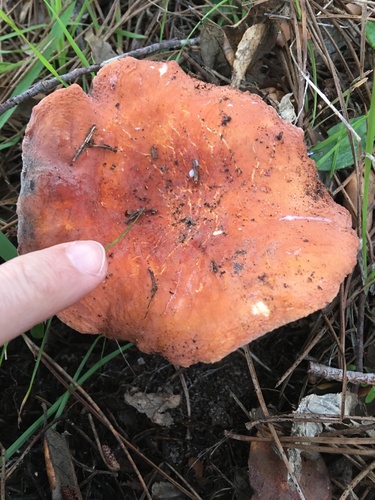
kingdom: Fungi
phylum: Basidiomycota
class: Agaricomycetes
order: Russulales
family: Russulaceae
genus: Lactarius
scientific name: Lactarius hygrophoroides
